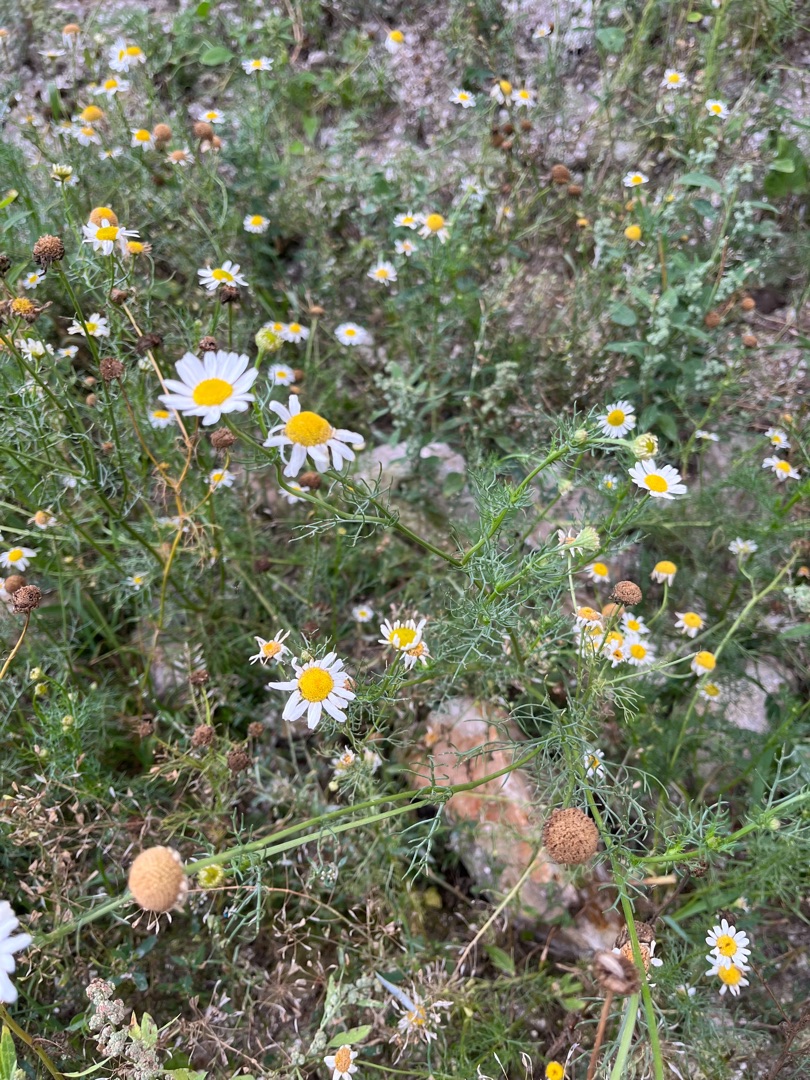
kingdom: Plantae
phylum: Tracheophyta
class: Magnoliopsida
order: Asterales
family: Asteraceae
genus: Tripleurospermum
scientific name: Tripleurospermum inodorum
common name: Lugtløs kamille
